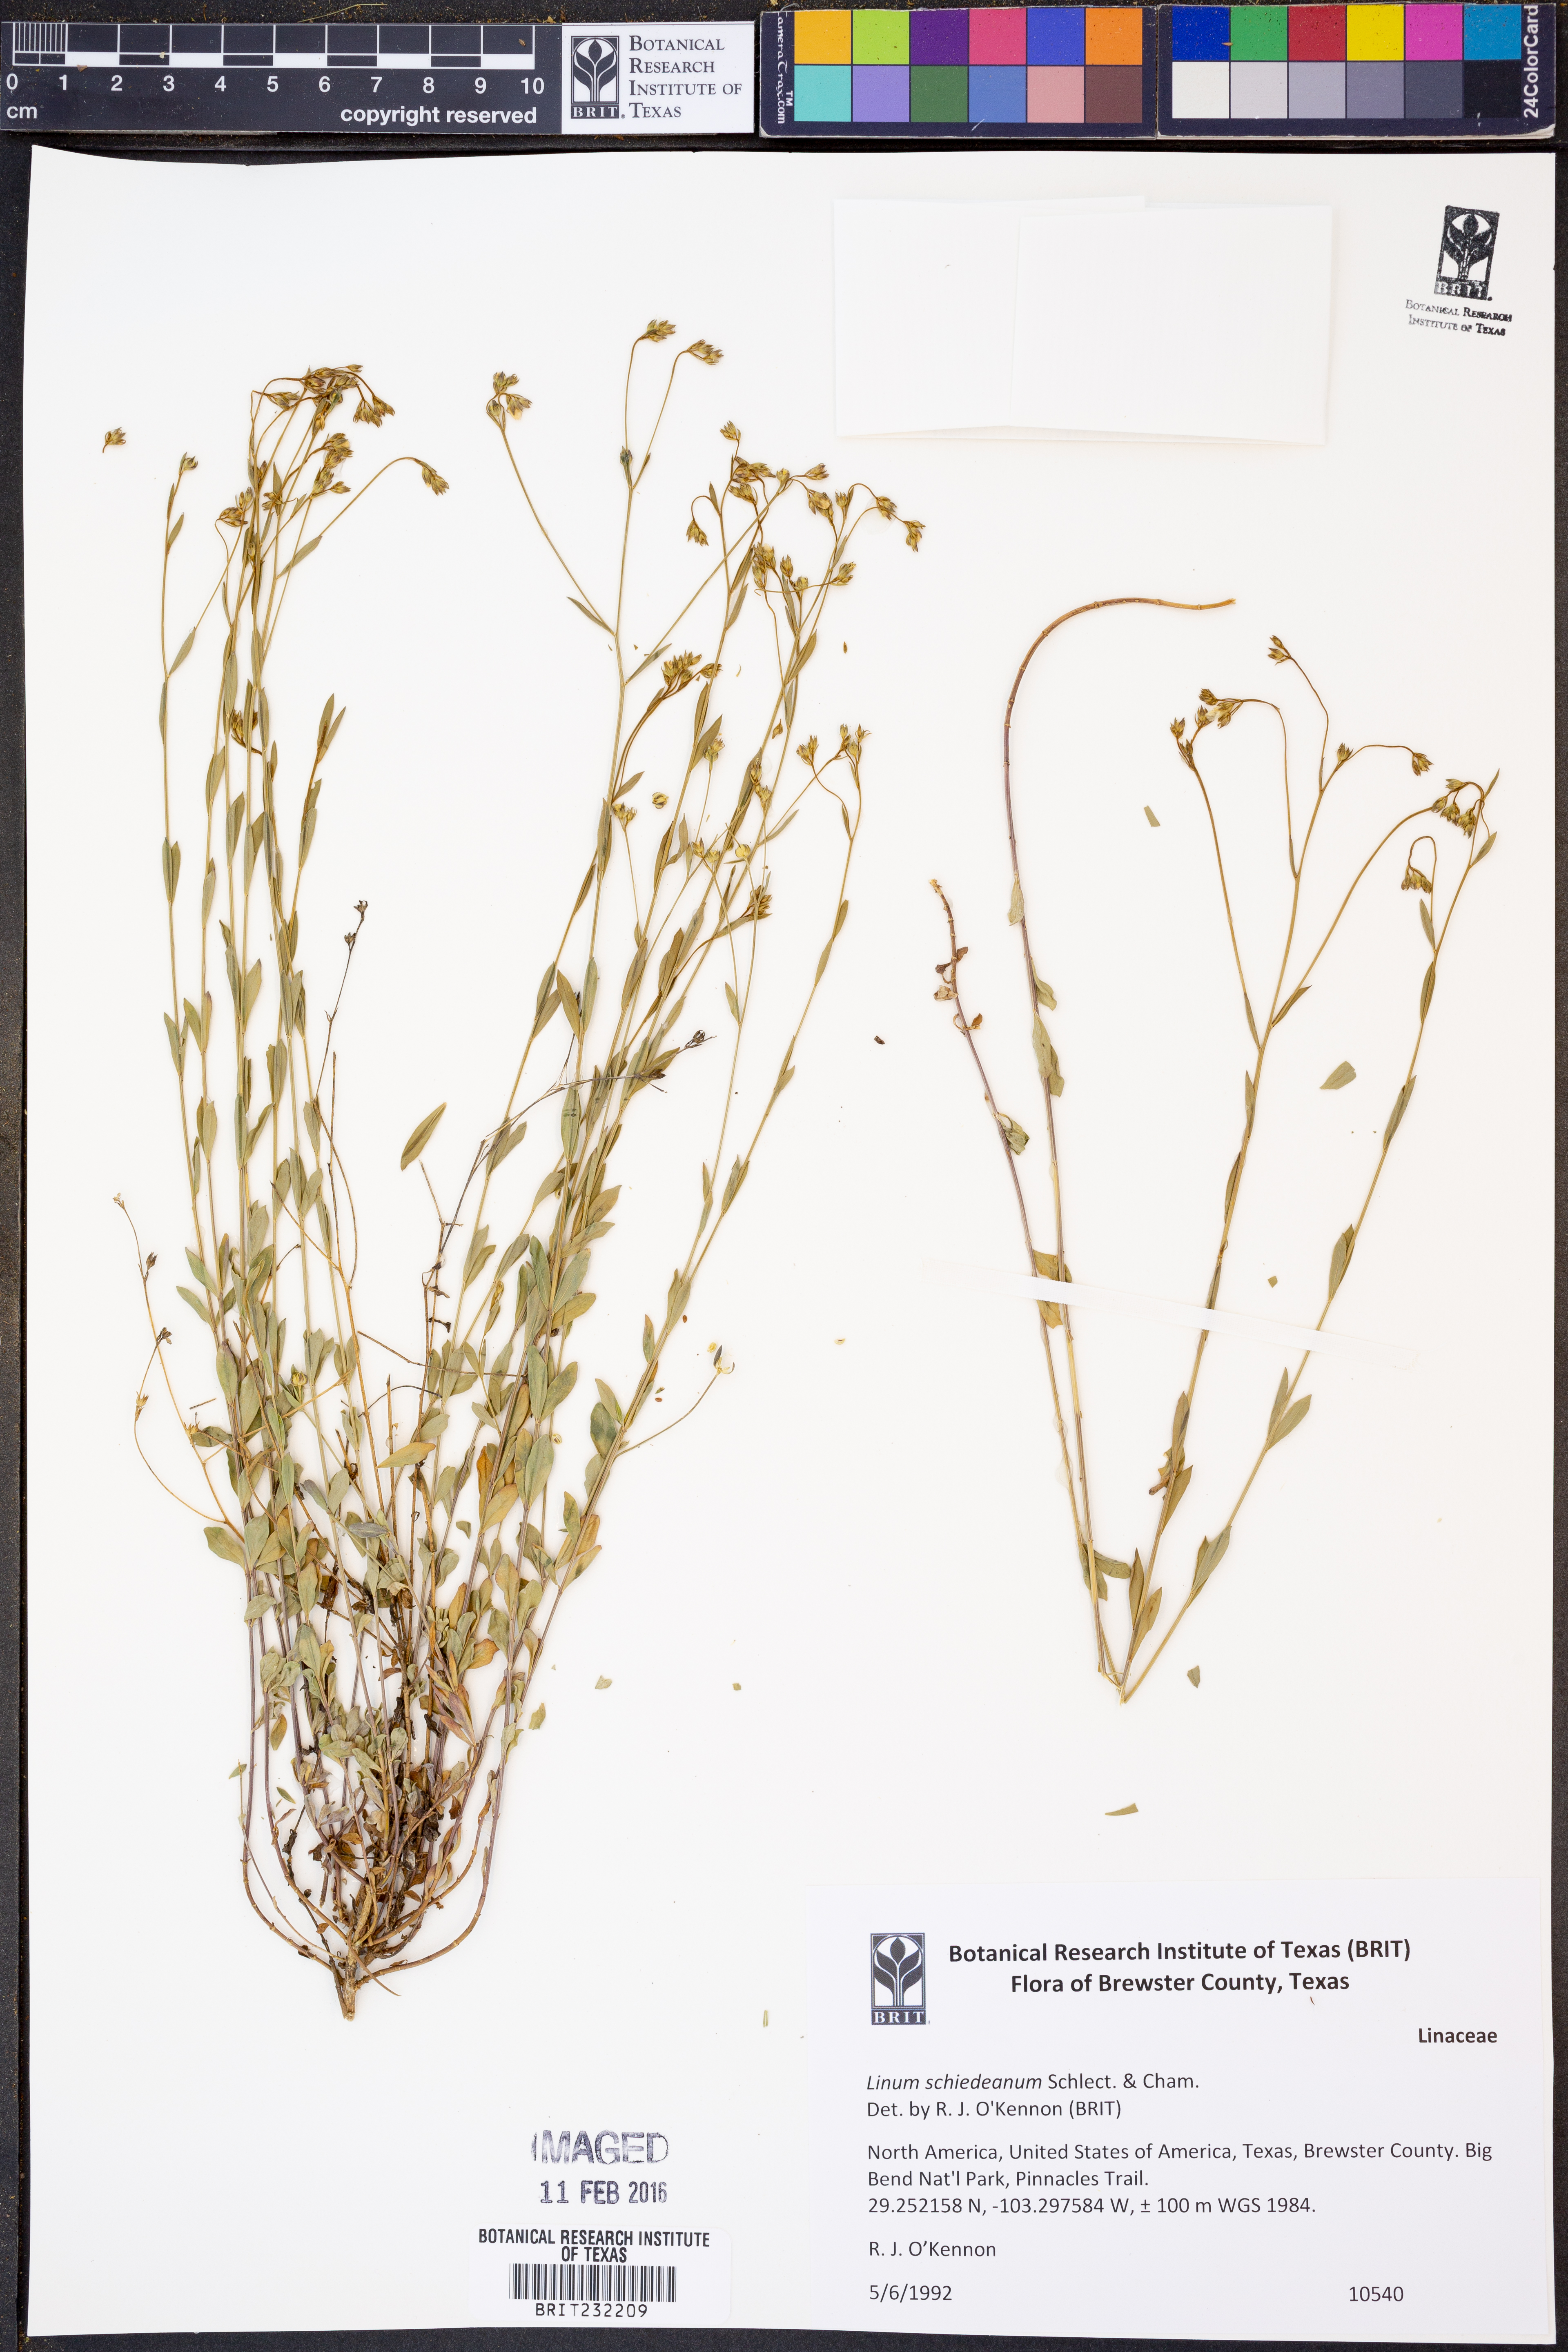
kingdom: Plantae
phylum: Tracheophyta
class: Magnoliopsida
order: Malpighiales
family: Linaceae
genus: Linum
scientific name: Linum schiedeanum
